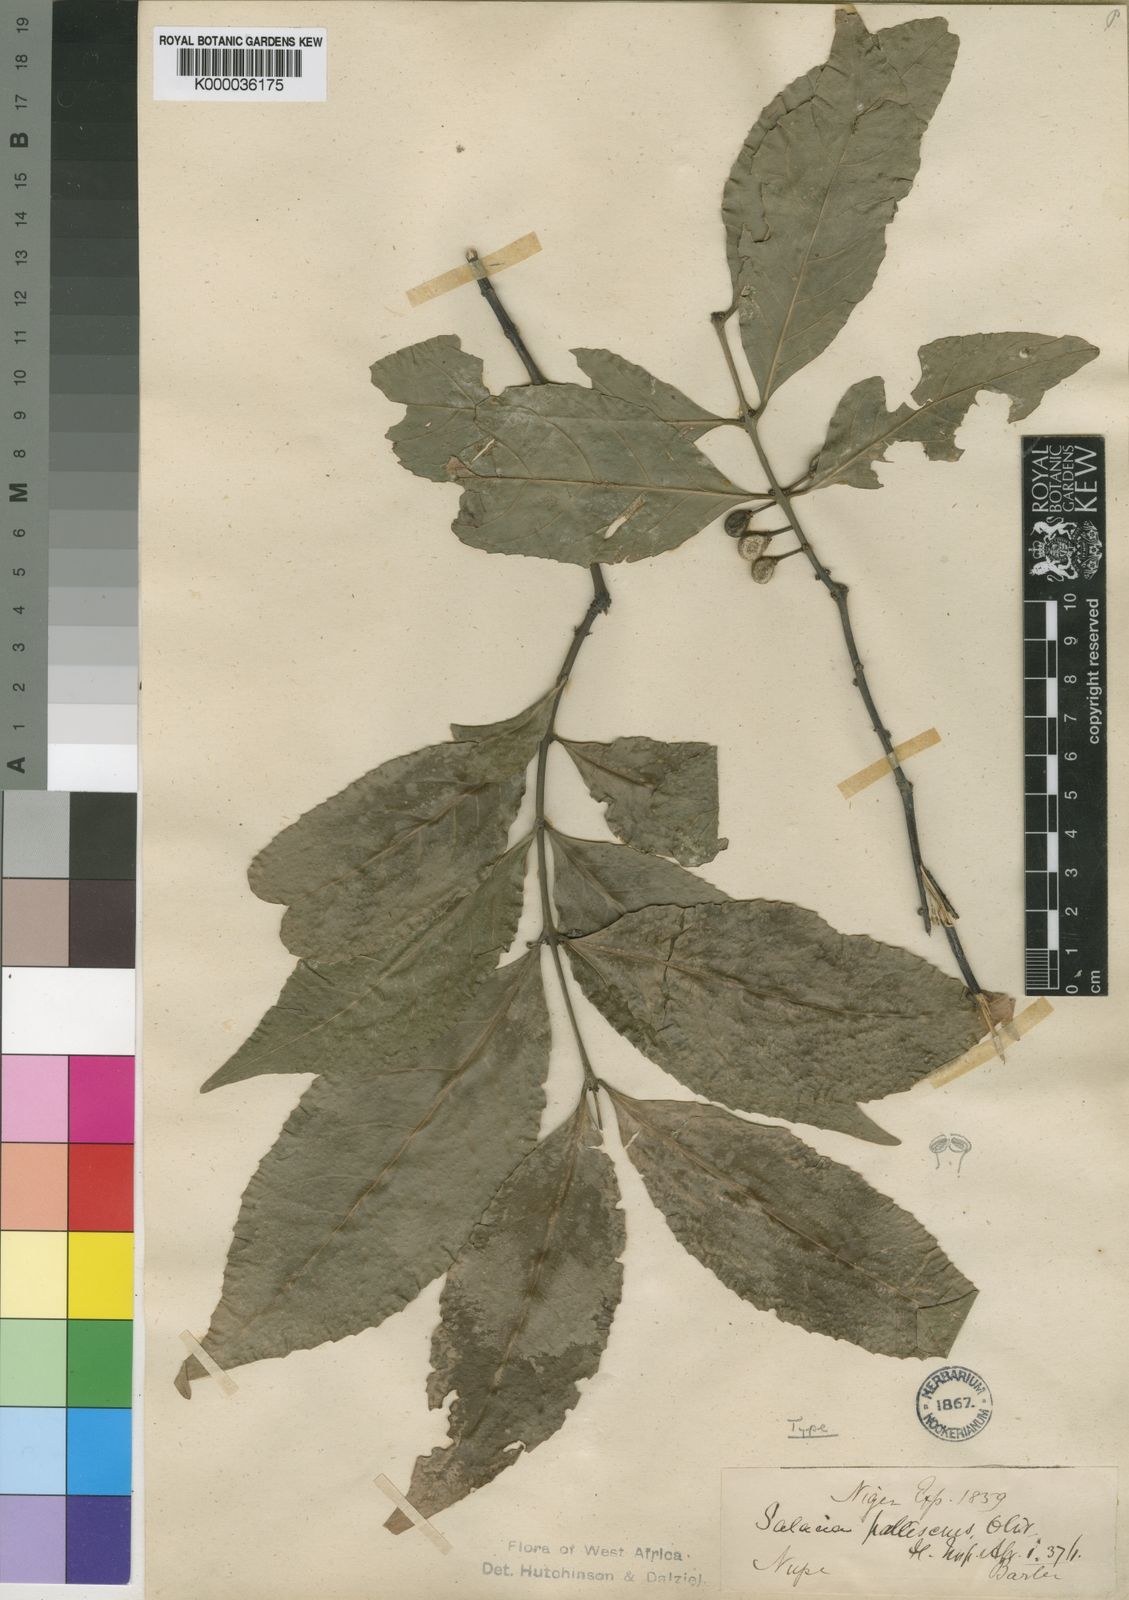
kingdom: Plantae
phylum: Tracheophyta
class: Magnoliopsida
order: Celastrales
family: Celastraceae
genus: Salacia
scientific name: Salacia pallescens
